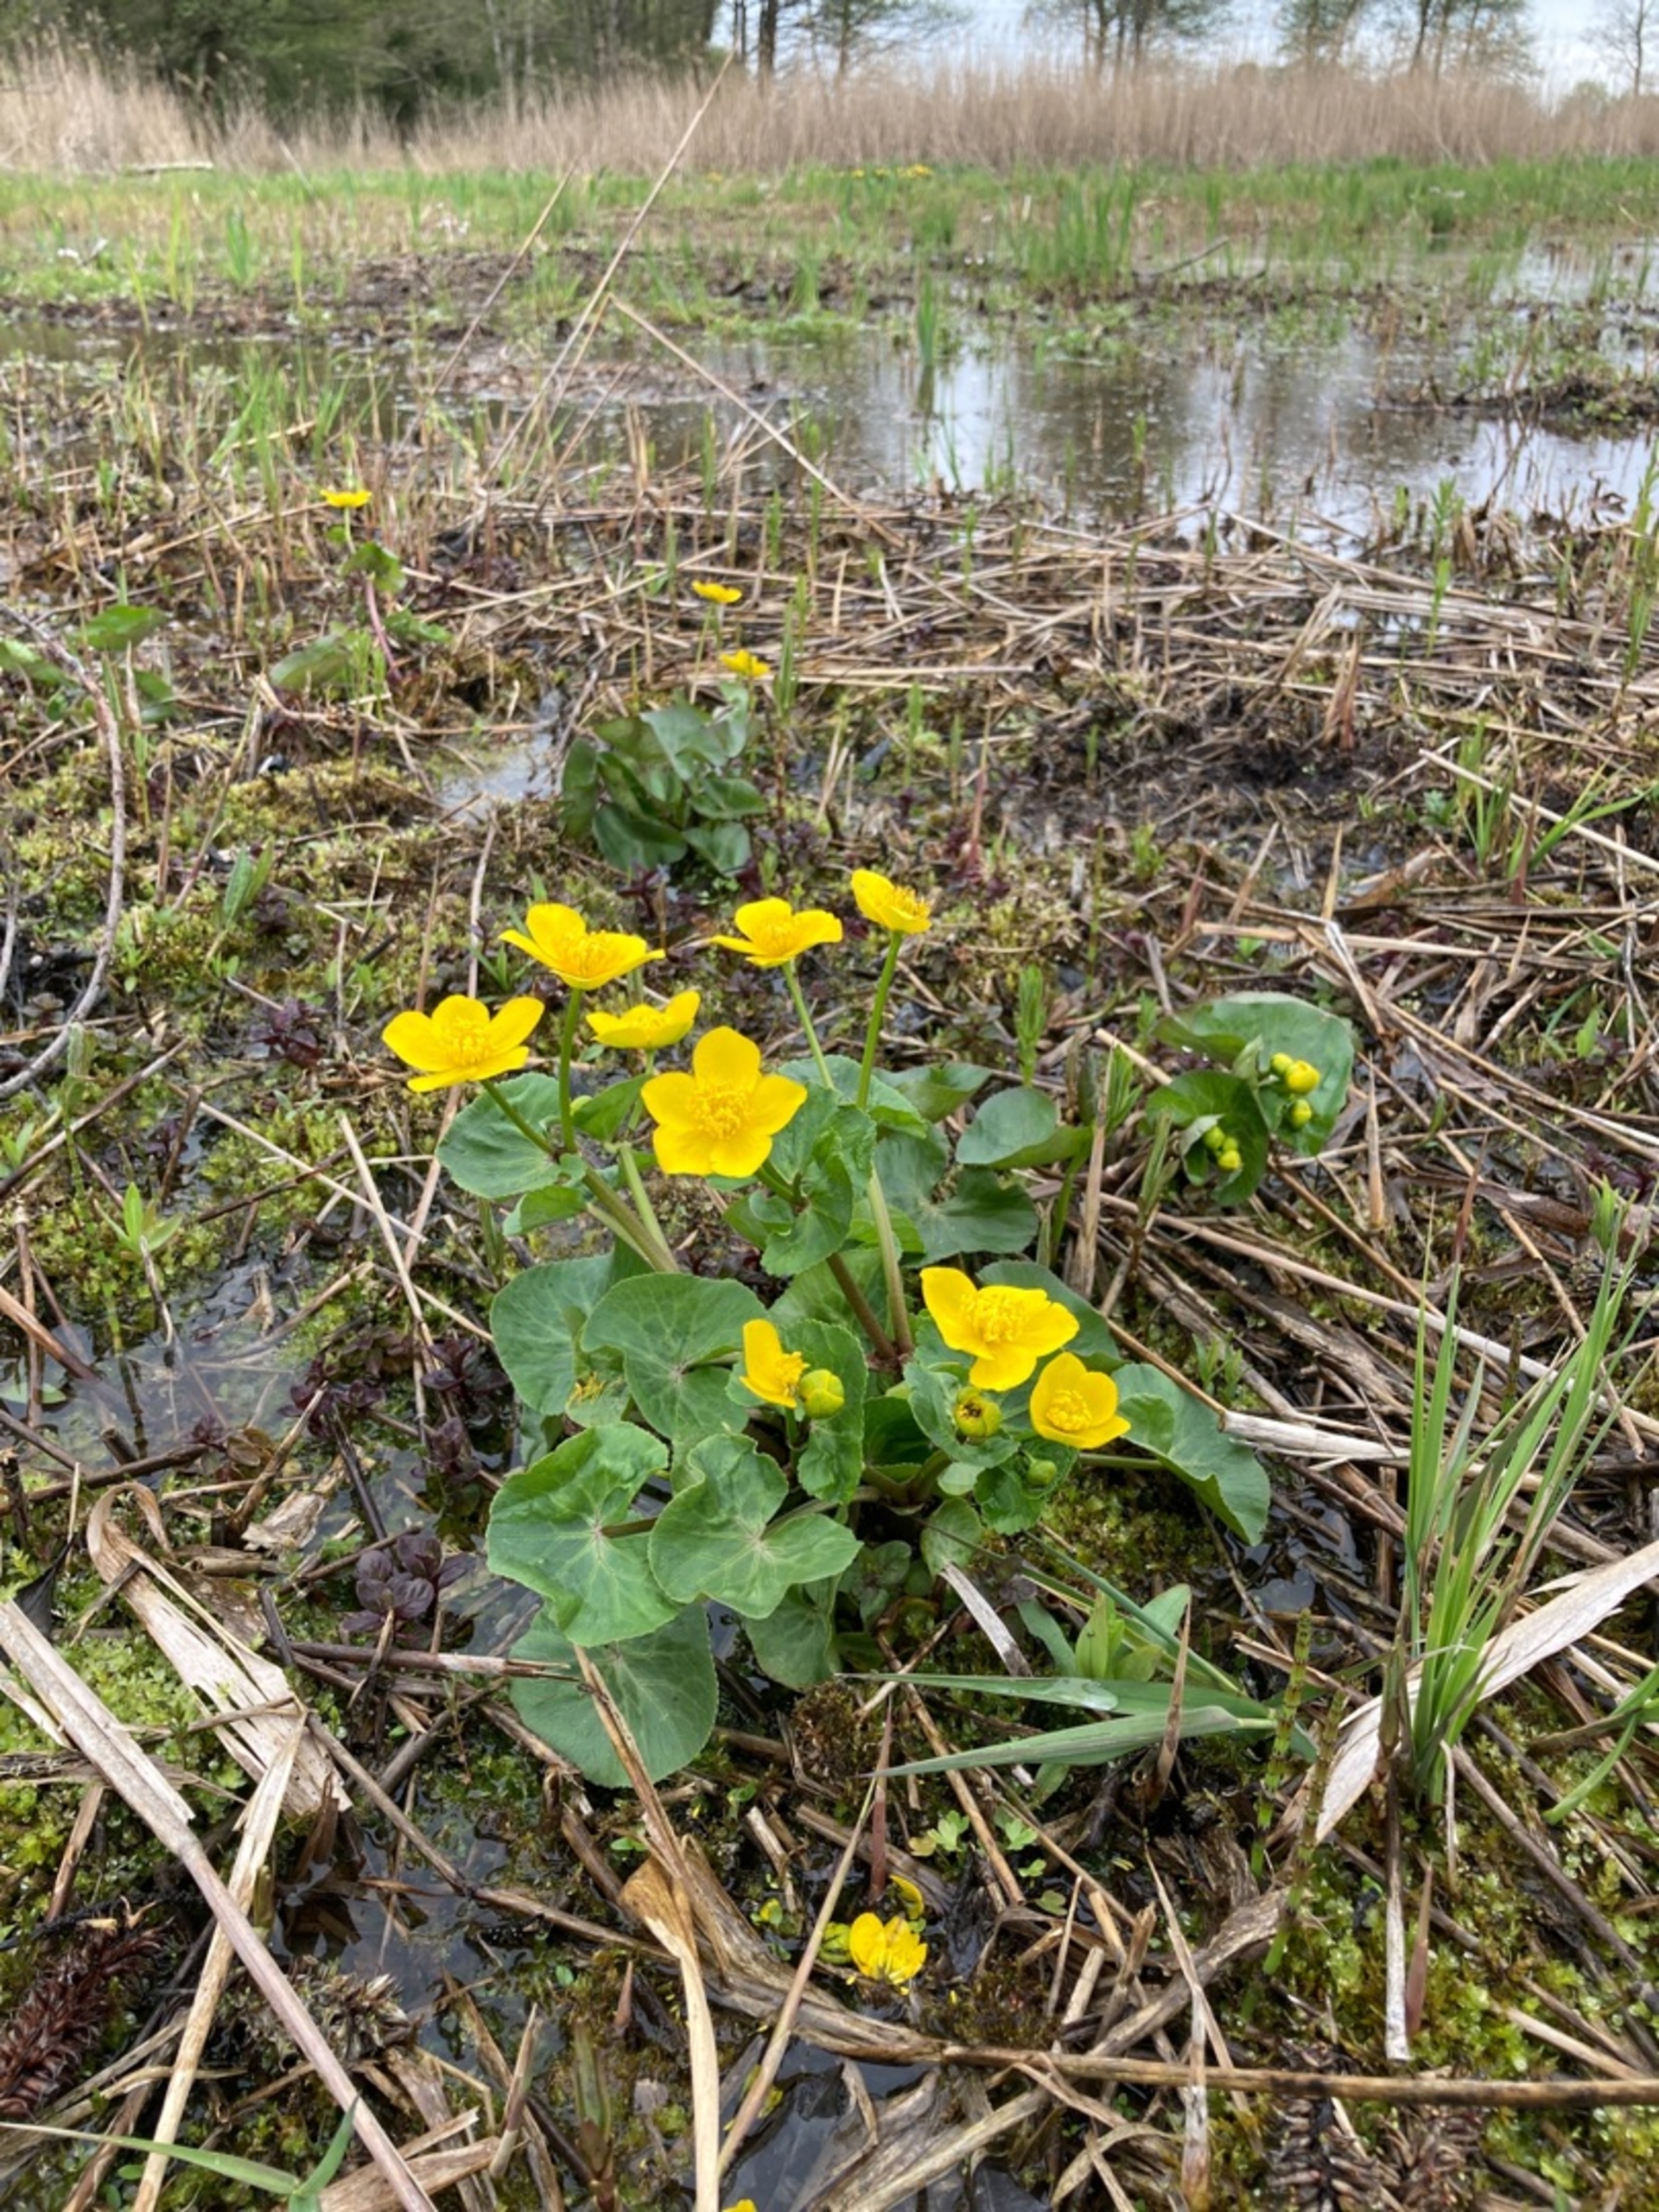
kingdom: Plantae
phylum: Tracheophyta
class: Magnoliopsida
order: Ranunculales
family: Ranunculaceae
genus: Caltha
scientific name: Caltha palustris
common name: Eng-kabbeleje
